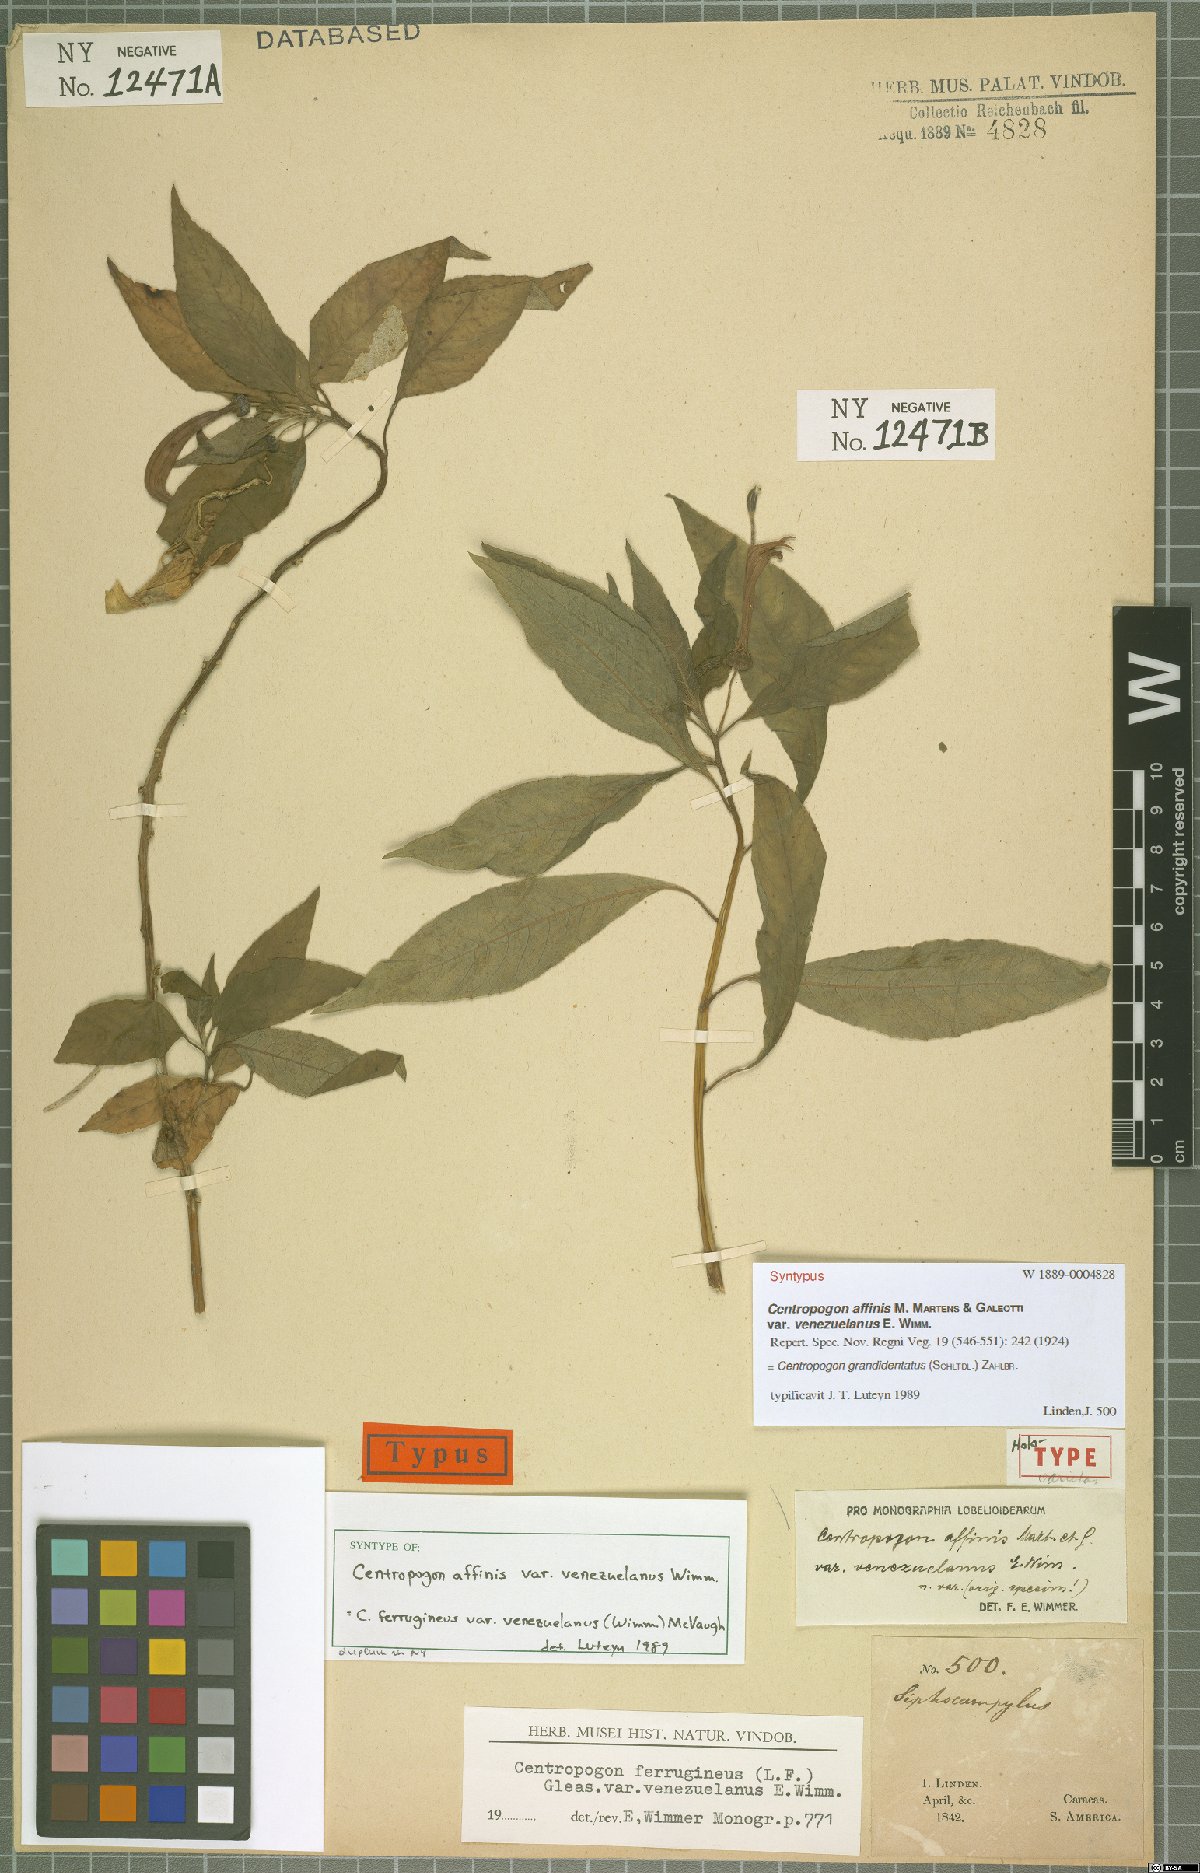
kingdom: Plantae
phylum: Tracheophyta
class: Magnoliopsida
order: Asterales
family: Campanulaceae
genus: Centropogon
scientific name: Centropogon grandidentatus
